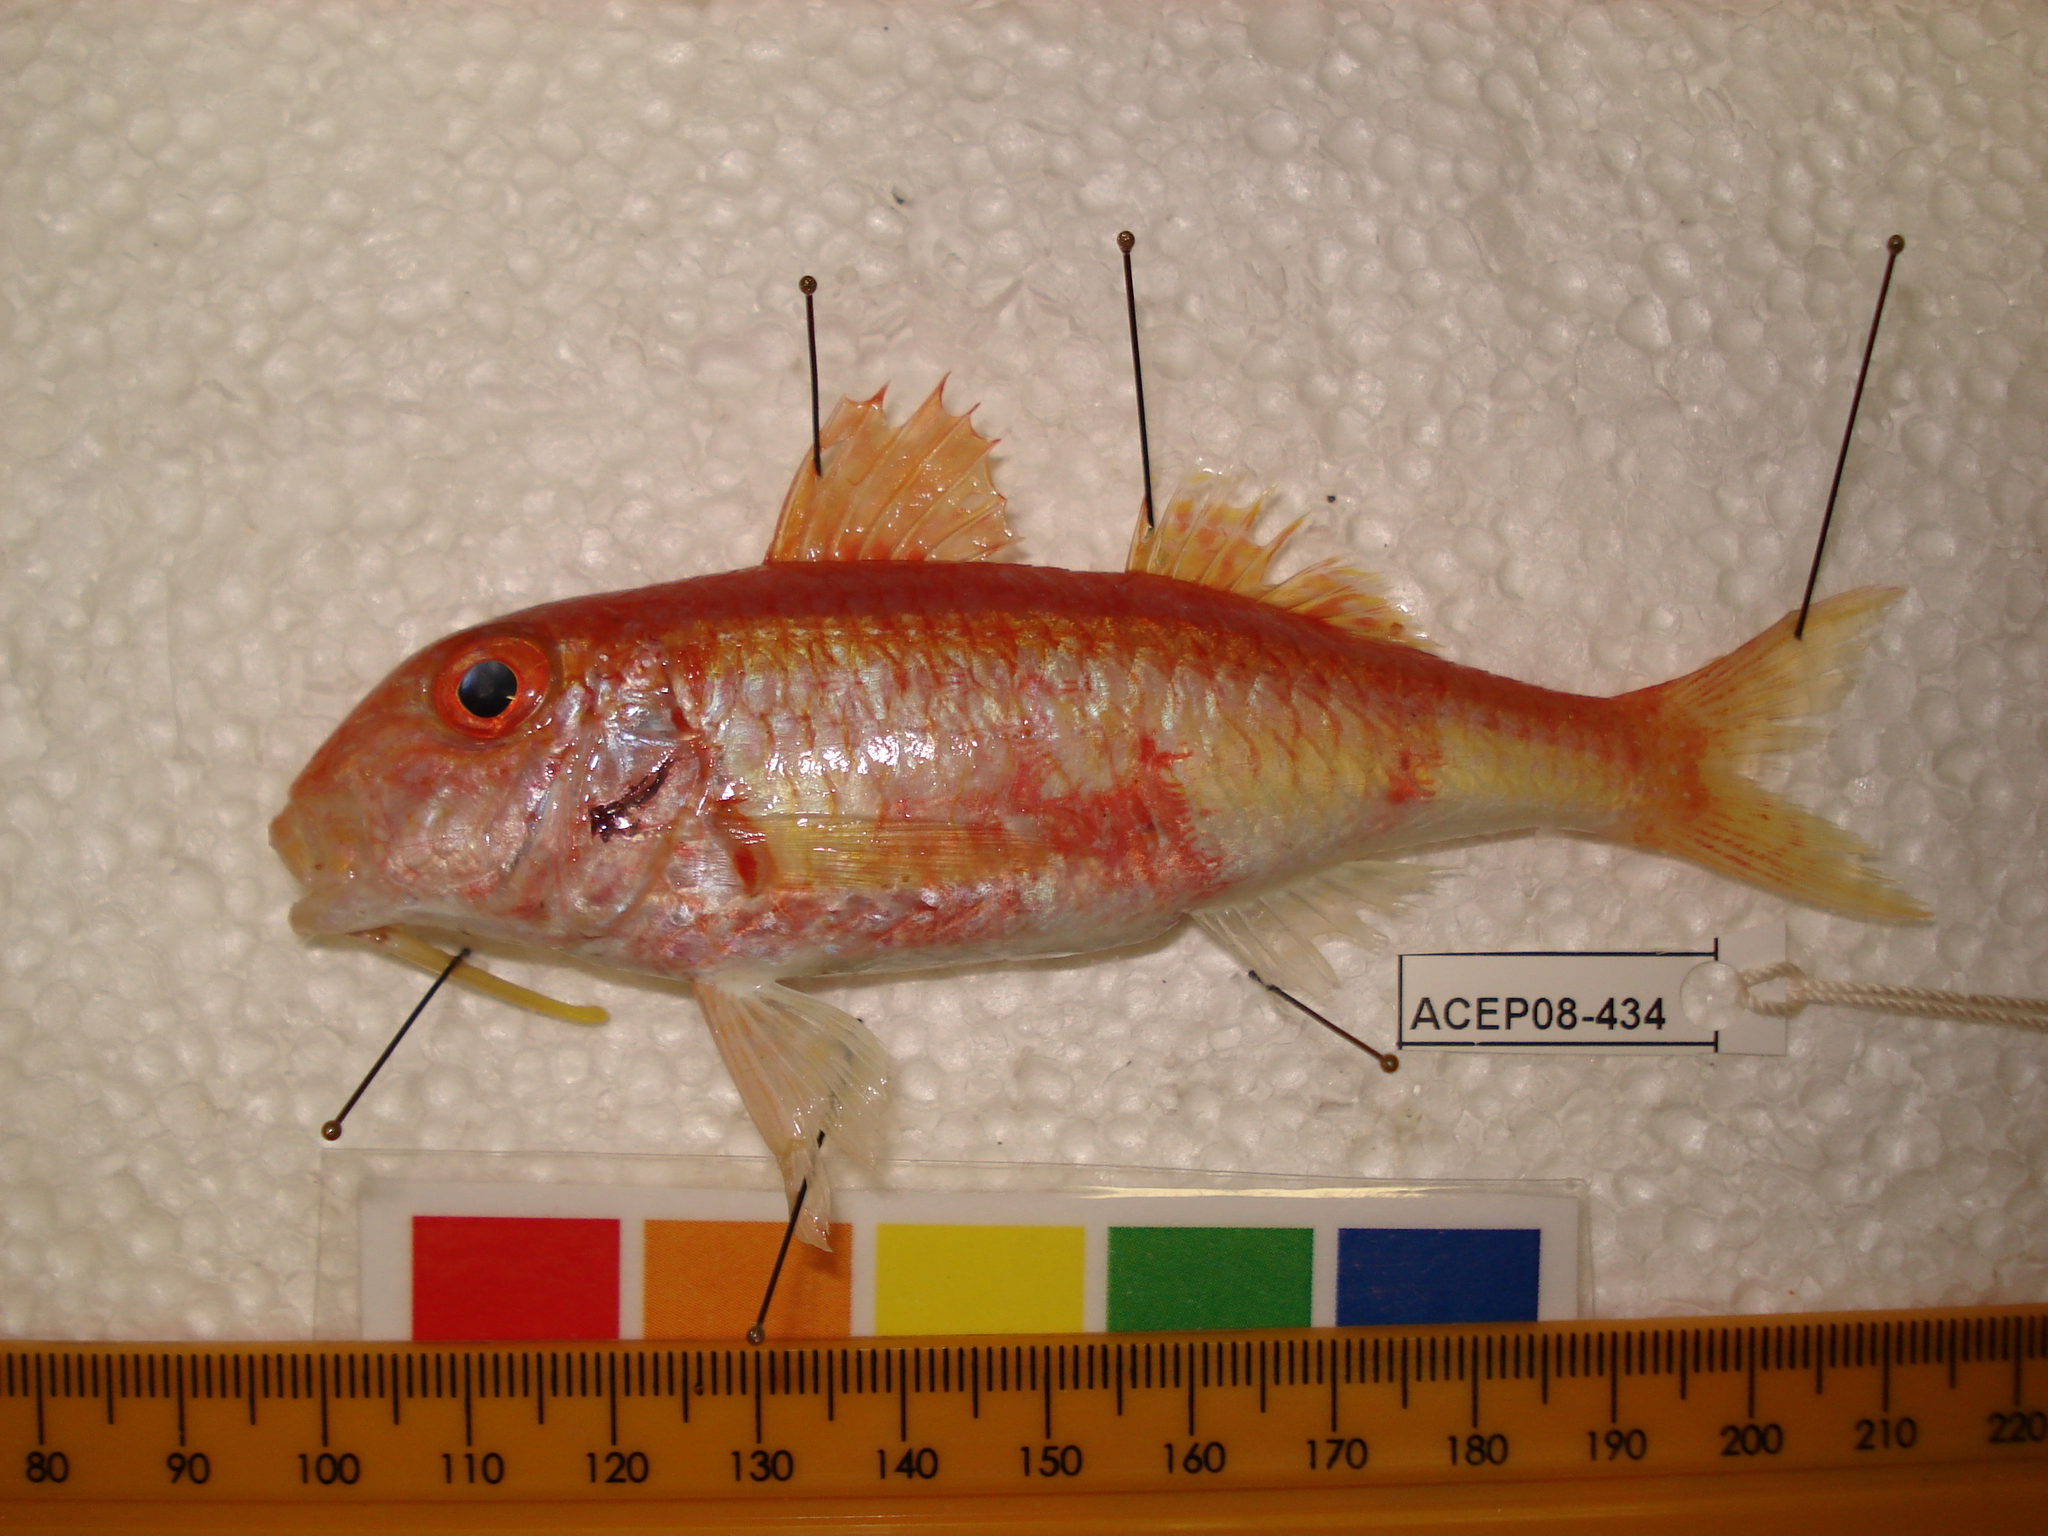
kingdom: Animalia
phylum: Chordata
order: Perciformes
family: Mullidae
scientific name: Mullidae
